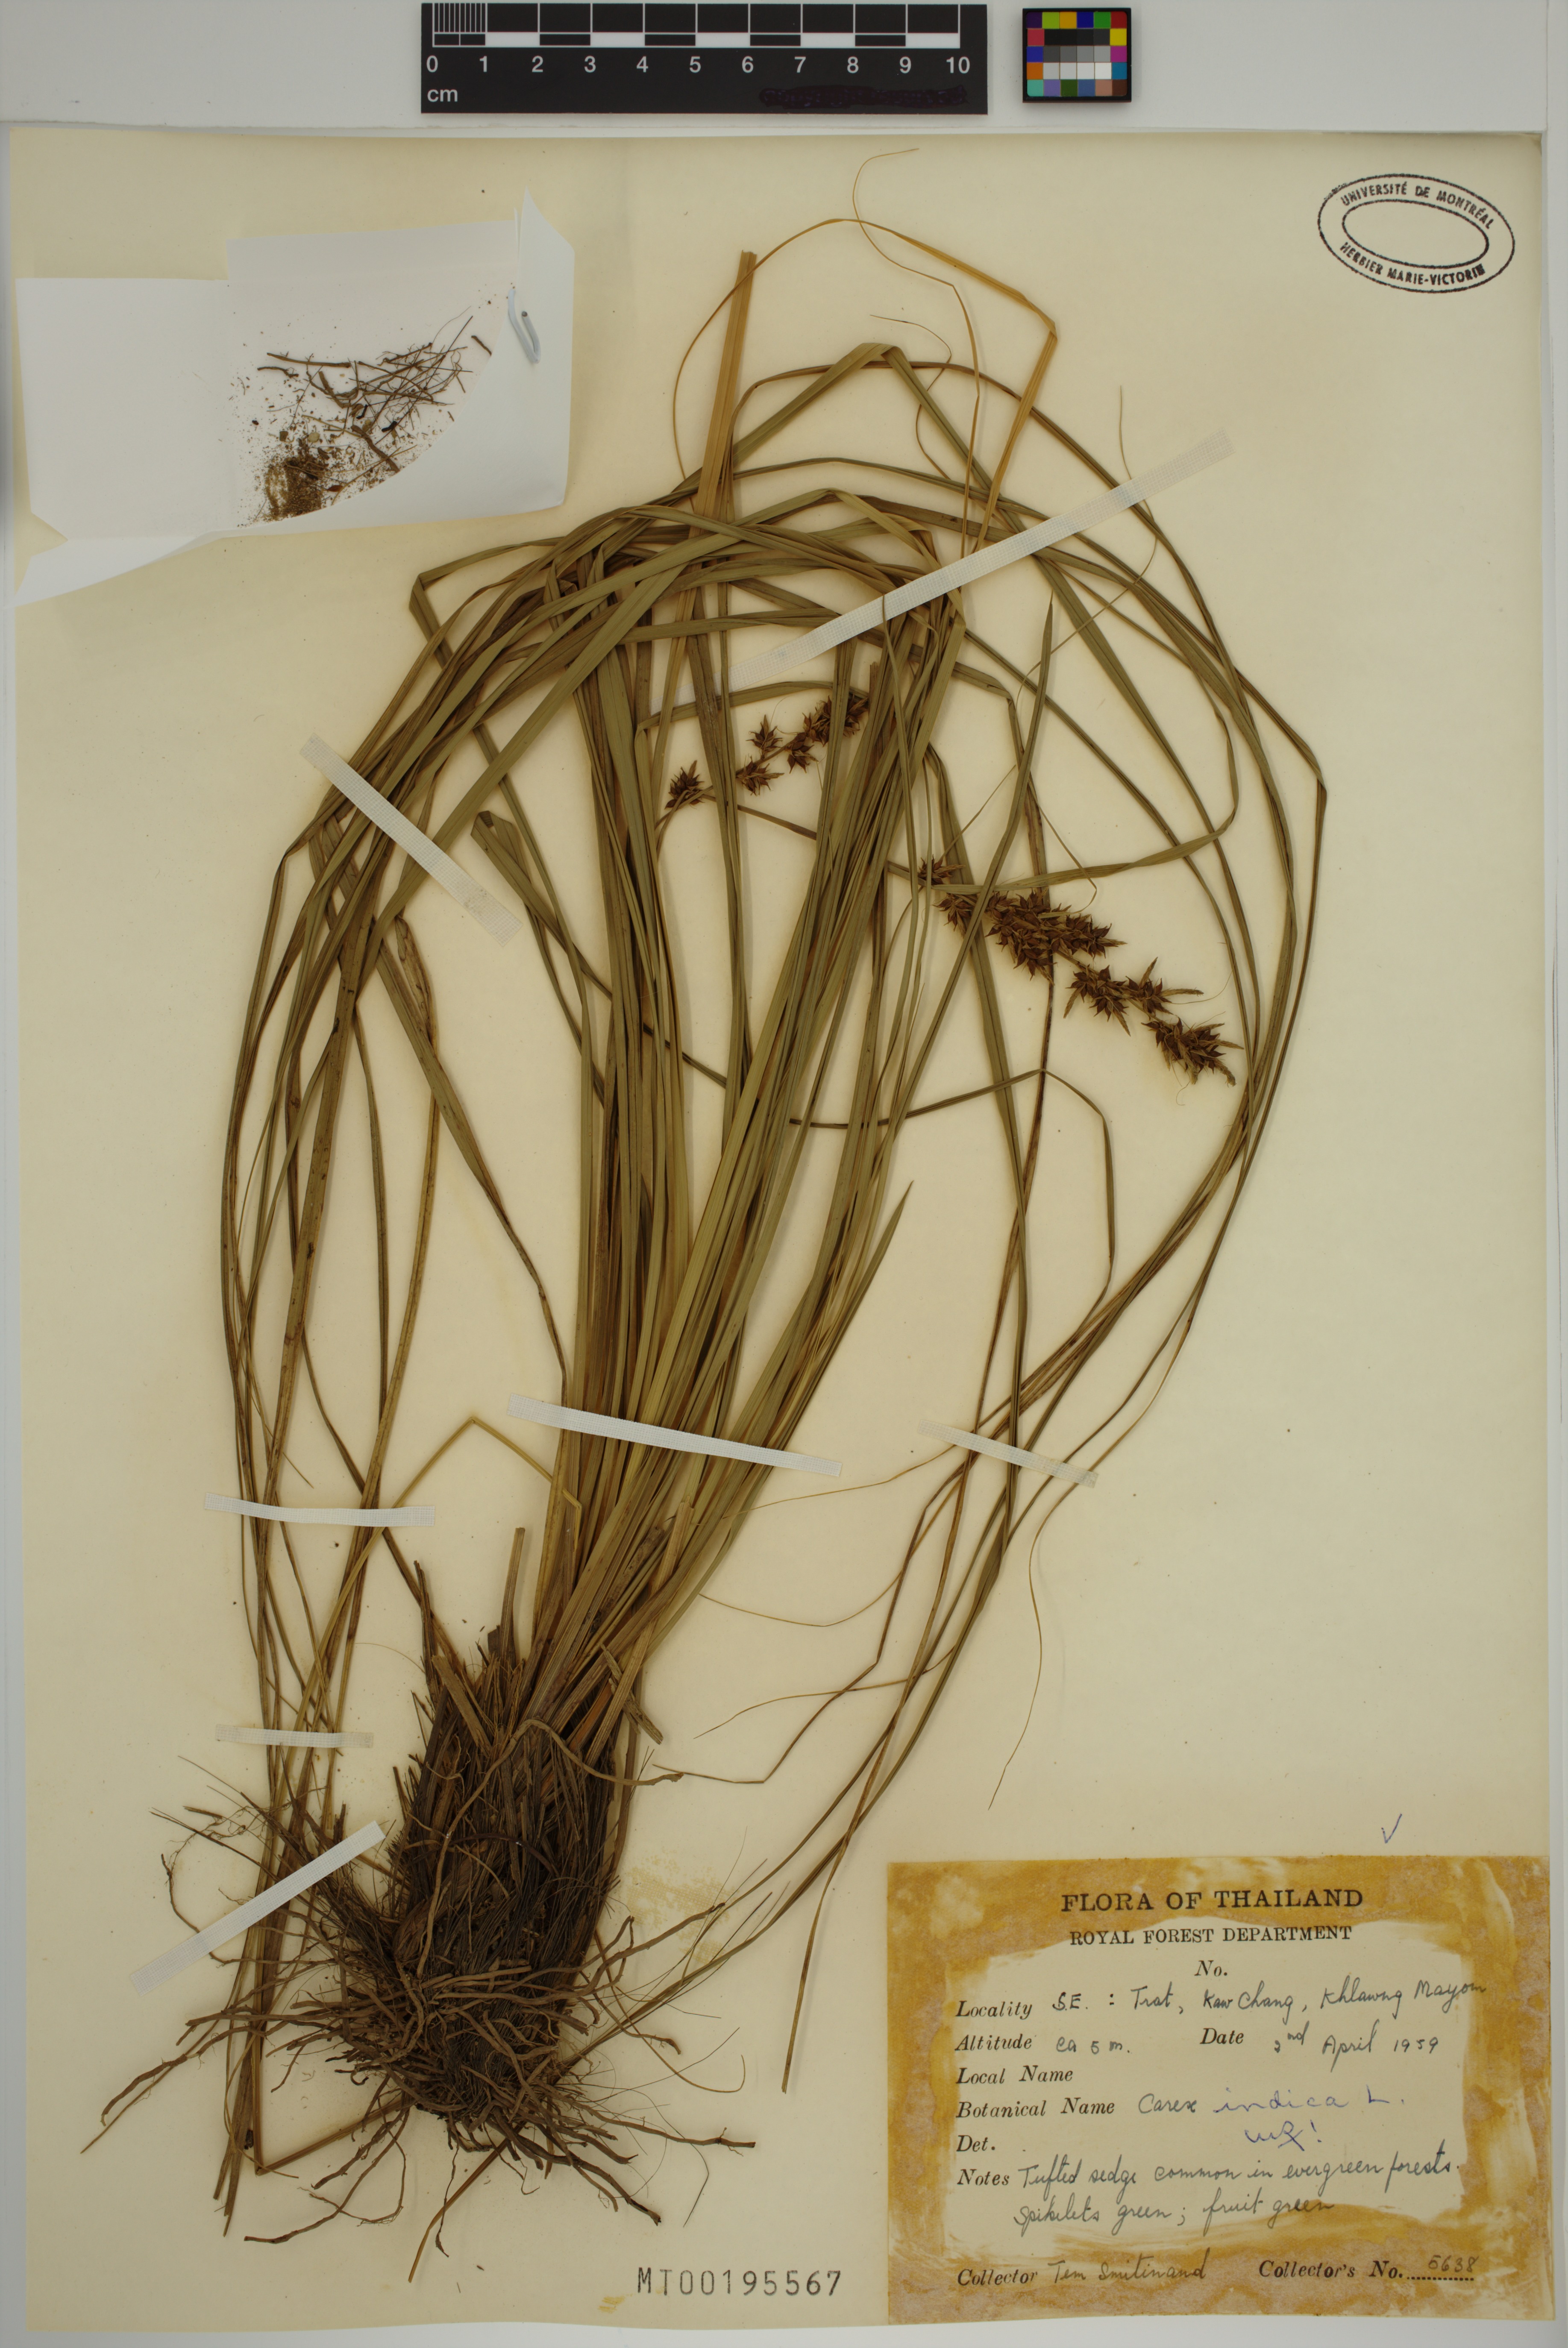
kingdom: Plantae
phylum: Tracheophyta
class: Liliopsida
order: Poales
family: Cyperaceae
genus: Carex
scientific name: Carex indica
